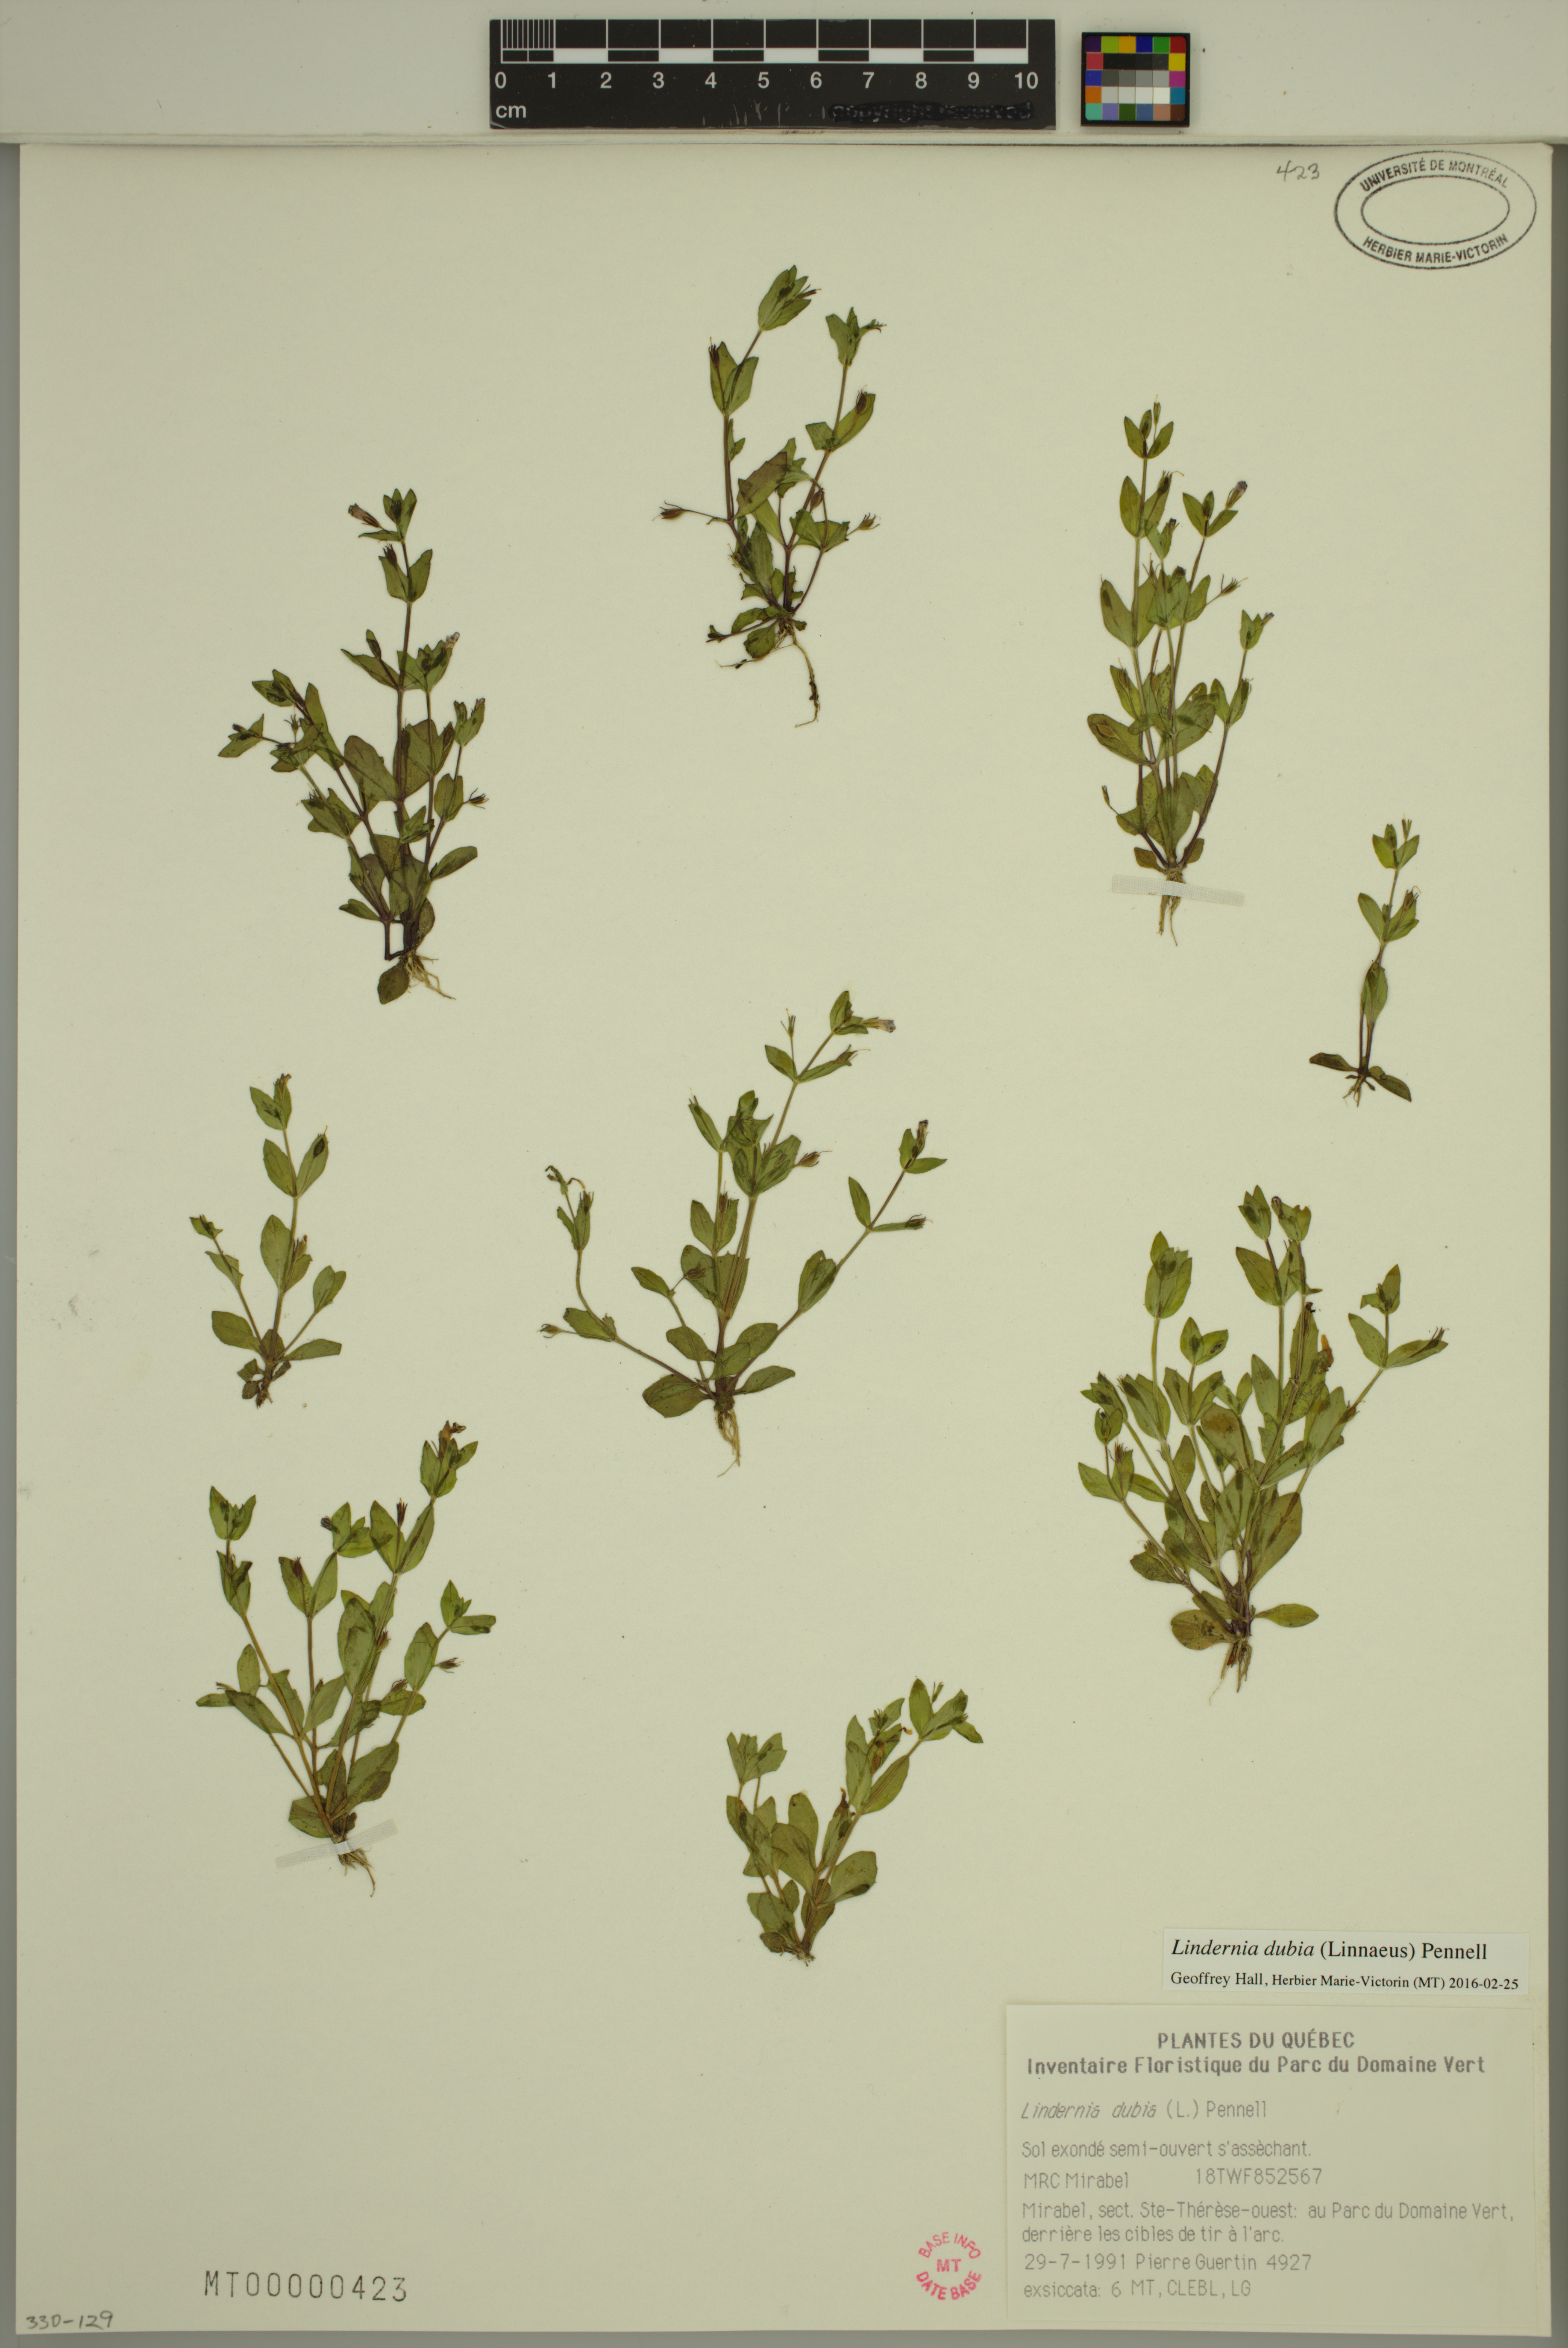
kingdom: Plantae
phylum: Tracheophyta
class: Magnoliopsida
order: Lamiales
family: Linderniaceae
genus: Lindernia
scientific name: Lindernia dubia
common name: Annual false pimpernel
